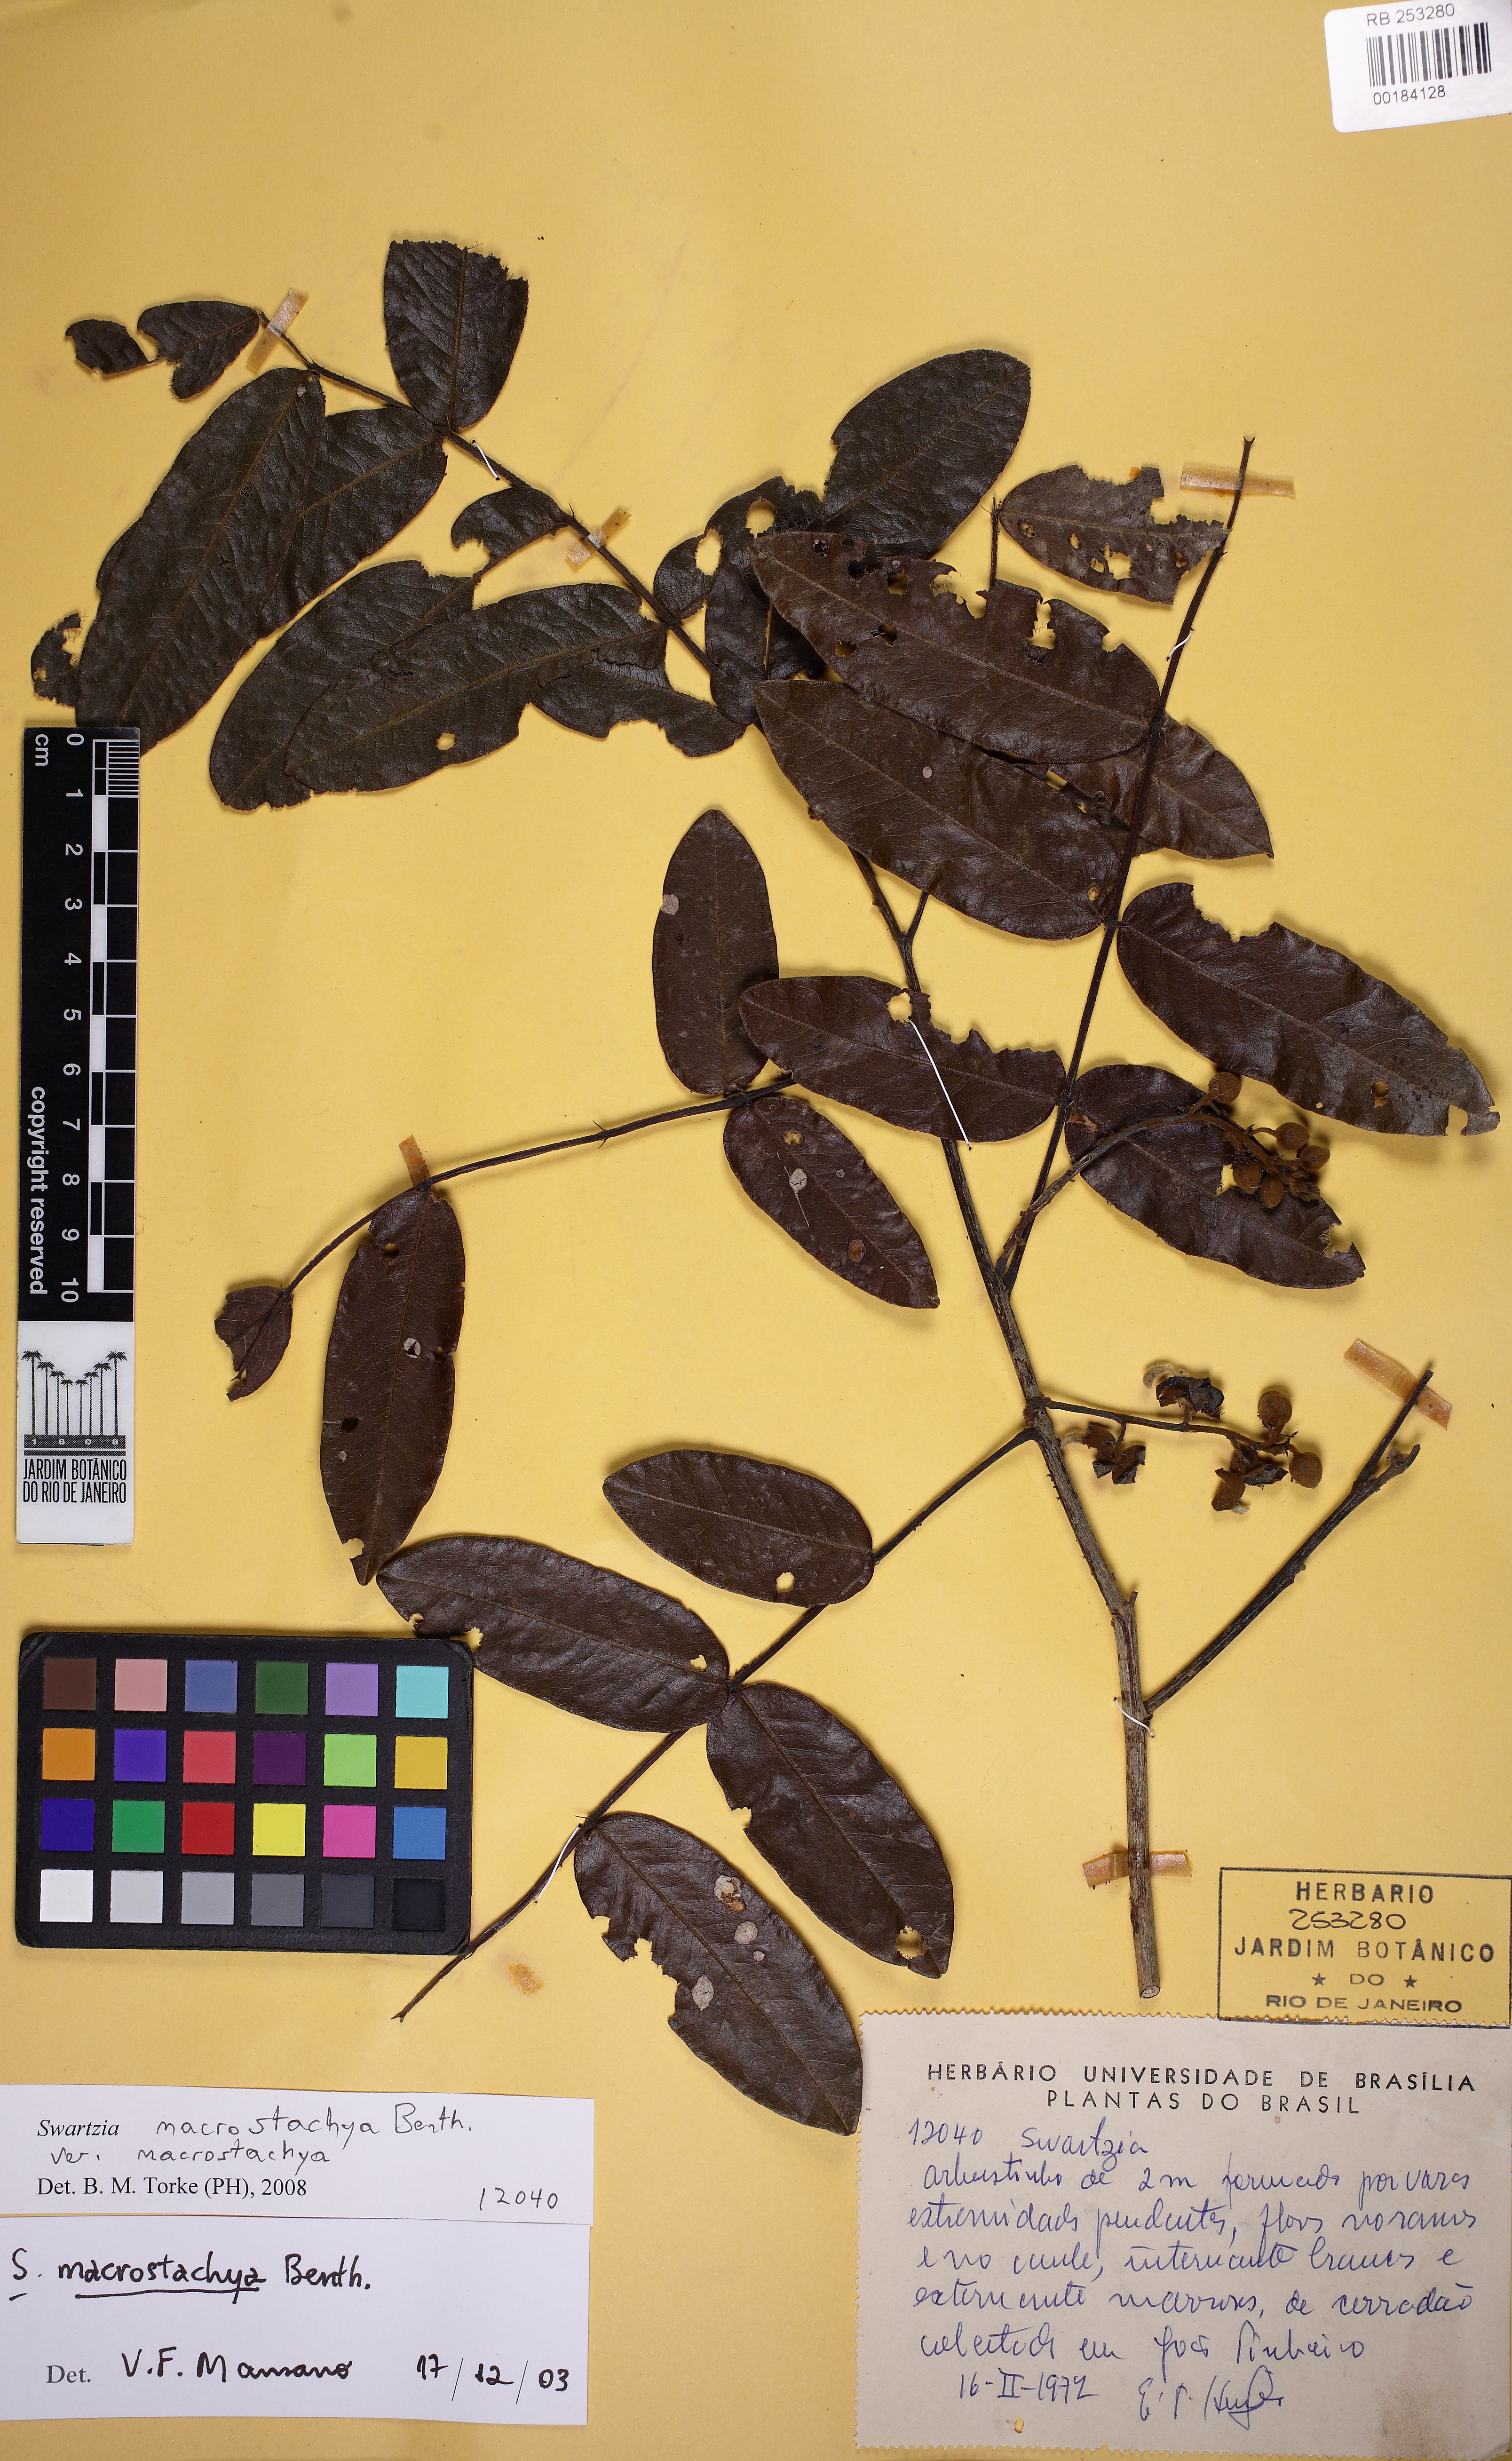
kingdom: Plantae
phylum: Tracheophyta
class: Magnoliopsida
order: Fabales
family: Fabaceae
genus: Swartzia
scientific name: Swartzia macrostachya
